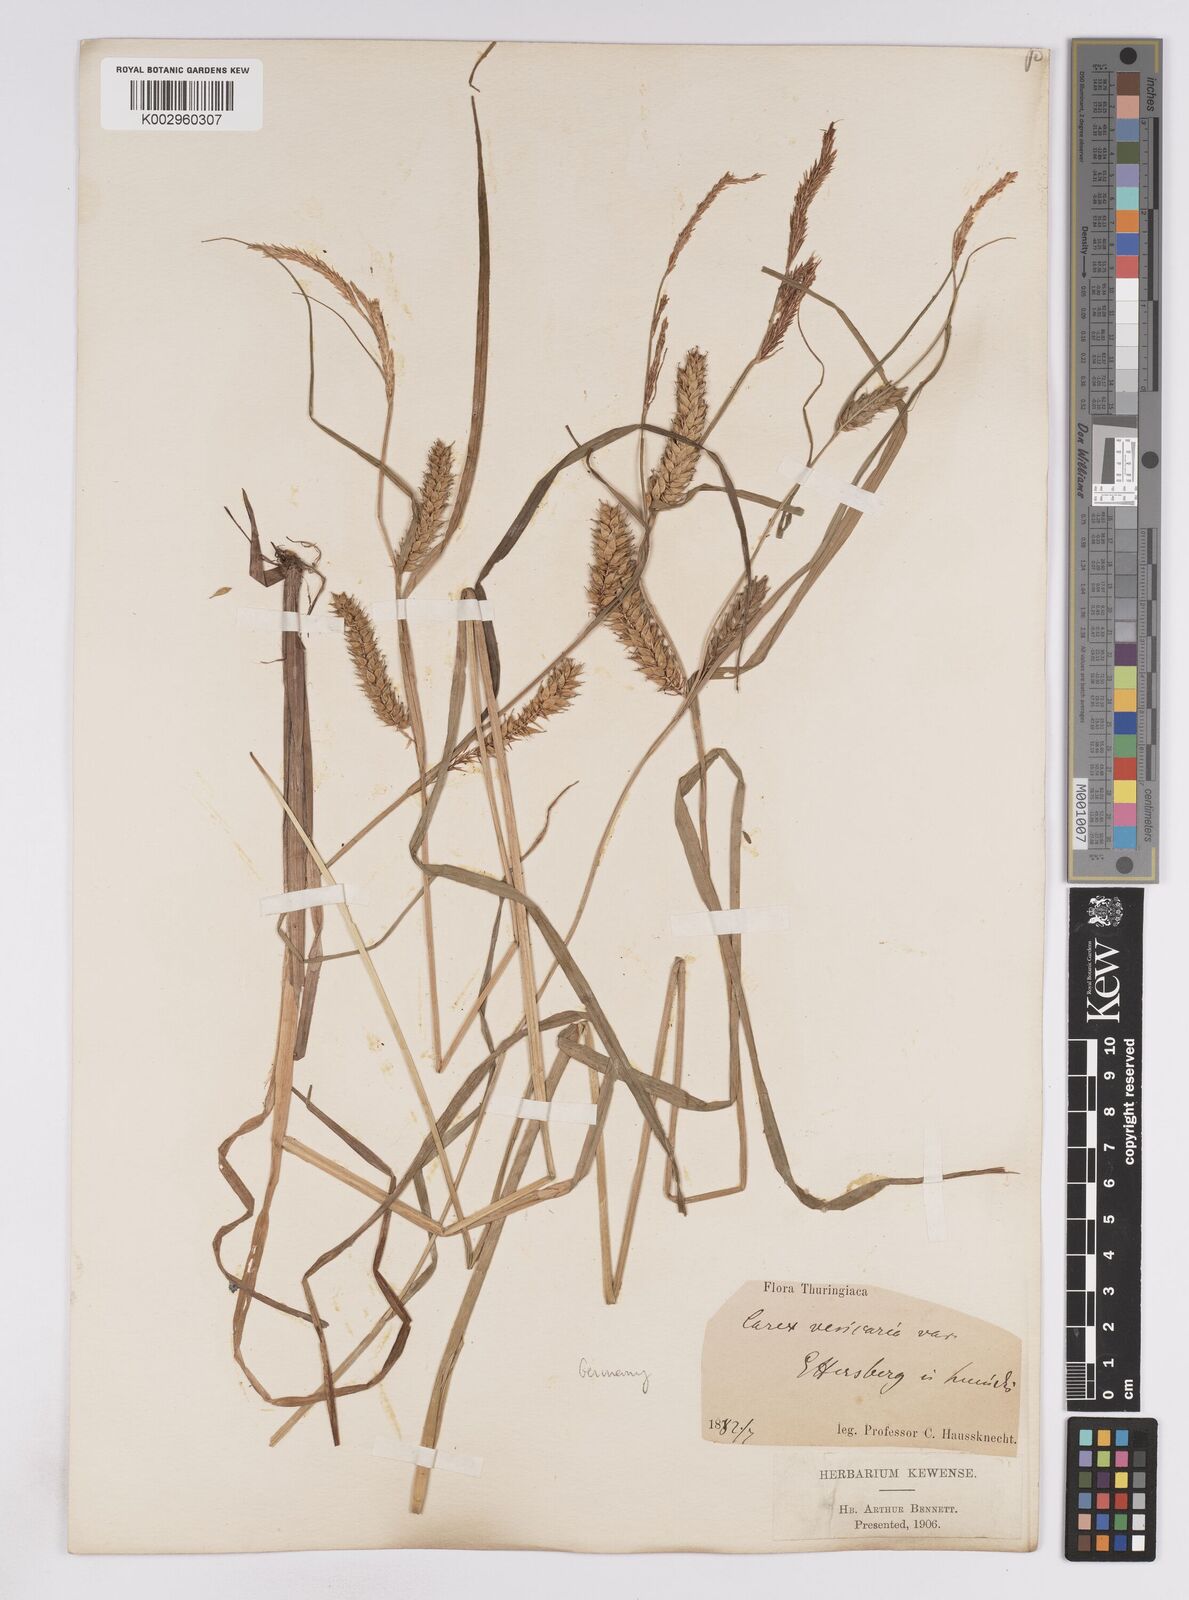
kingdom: Plantae
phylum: Tracheophyta
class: Liliopsida
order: Poales
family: Cyperaceae
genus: Carex
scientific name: Carex vesicaria
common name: Bladder-sedge
